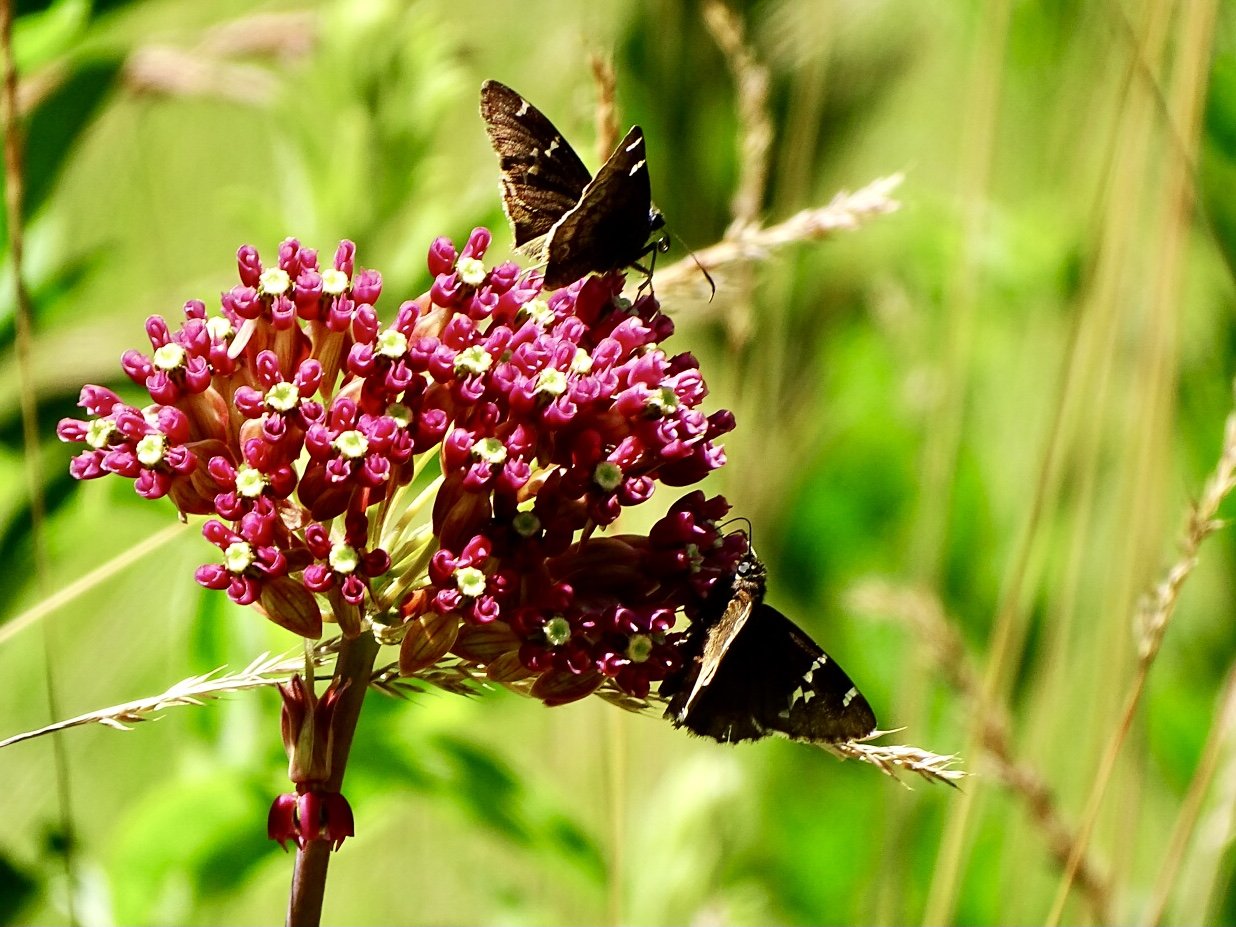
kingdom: Animalia
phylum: Arthropoda
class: Insecta
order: Lepidoptera
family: Hesperiidae
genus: Autochton
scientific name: Autochton
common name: Southern Cloudywing
